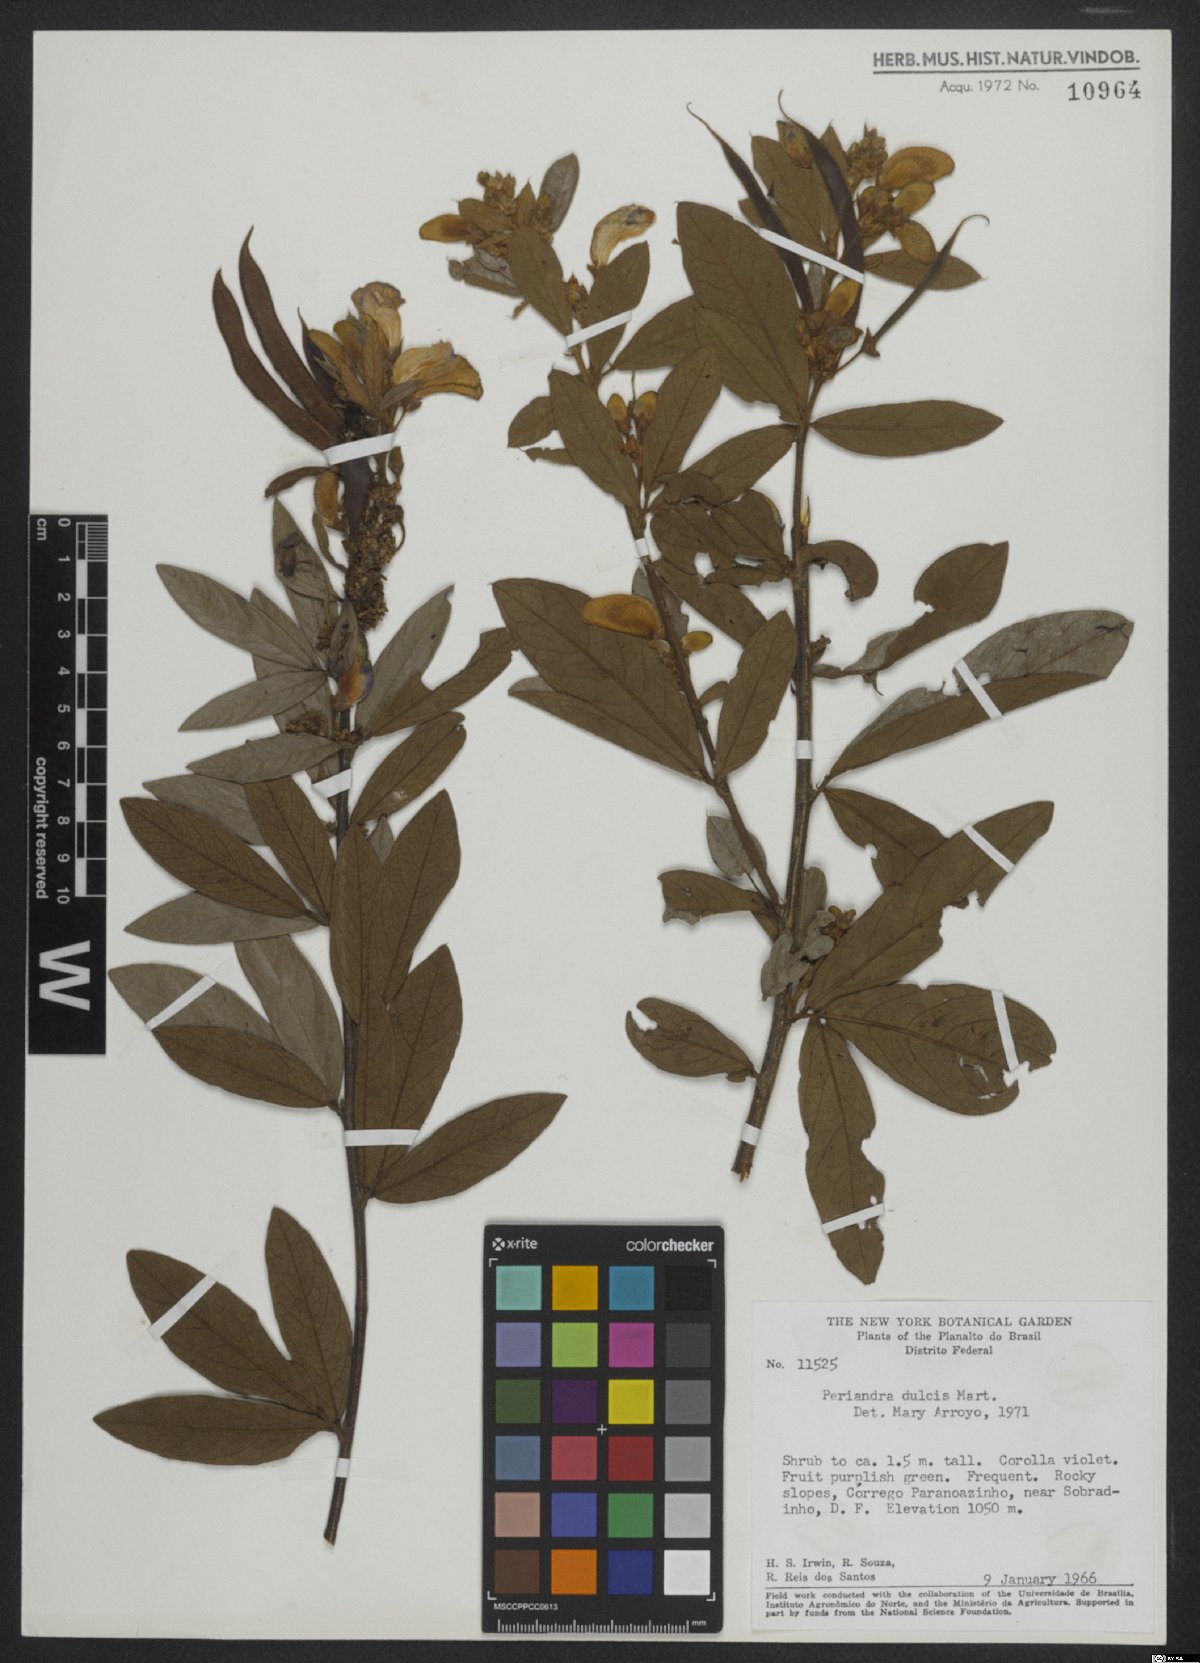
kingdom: Plantae
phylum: Tracheophyta
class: Magnoliopsida
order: Fabales
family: Fabaceae
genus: Periandra
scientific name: Periandra mediterranea
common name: Brazilian licorice
